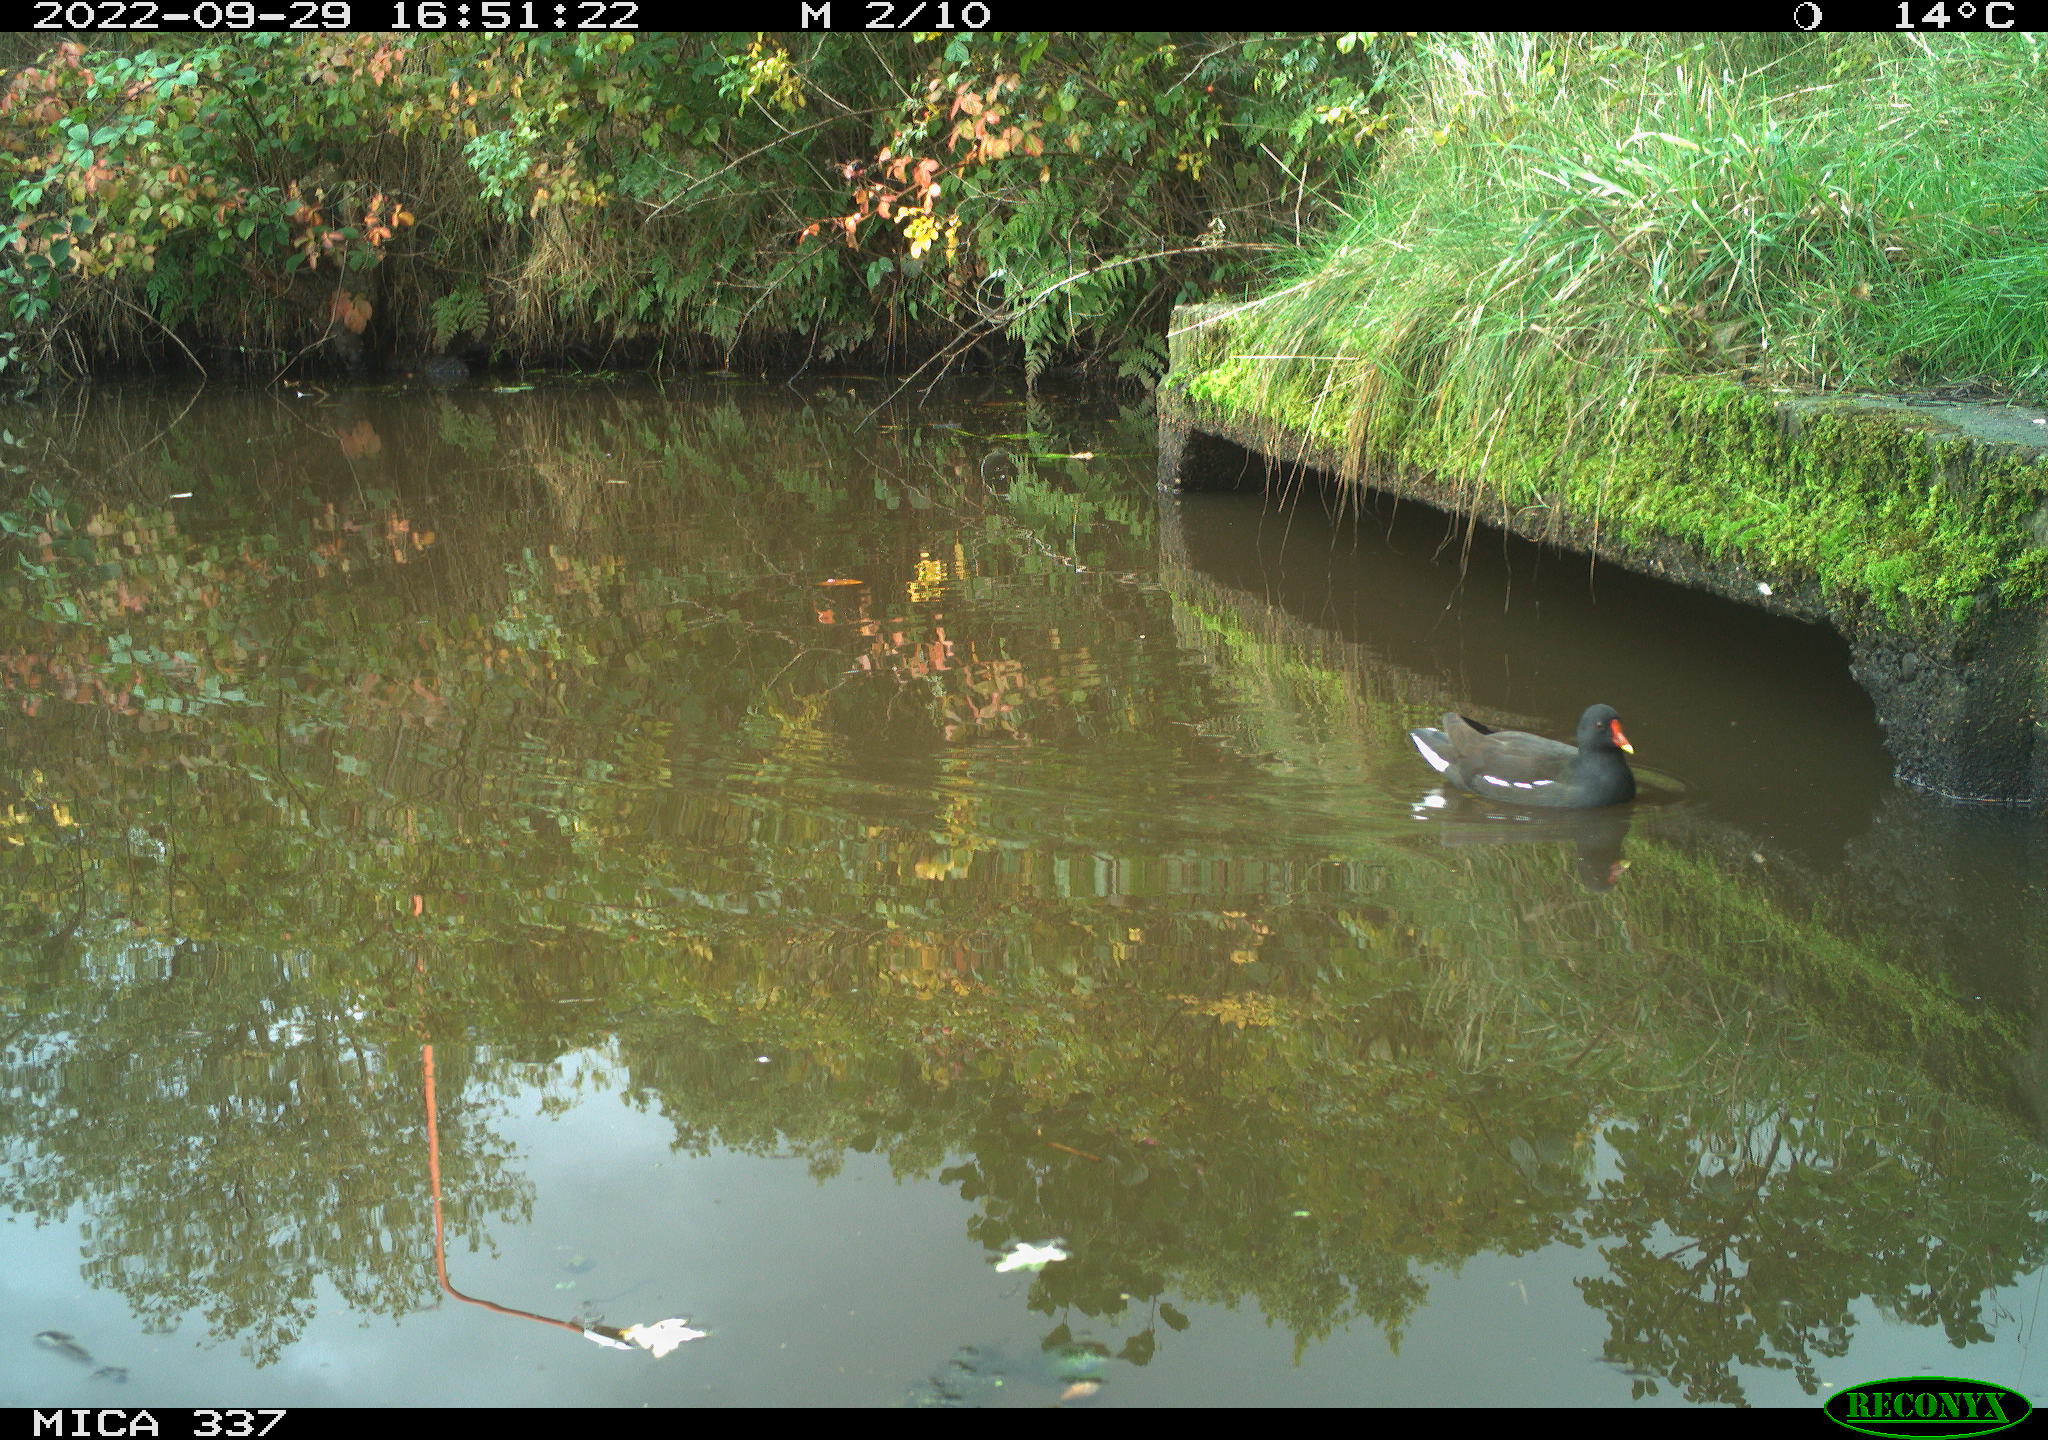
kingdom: Animalia
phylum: Chordata
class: Aves
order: Gruiformes
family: Rallidae
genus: Gallinula
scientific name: Gallinula chloropus
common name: Common moorhen
